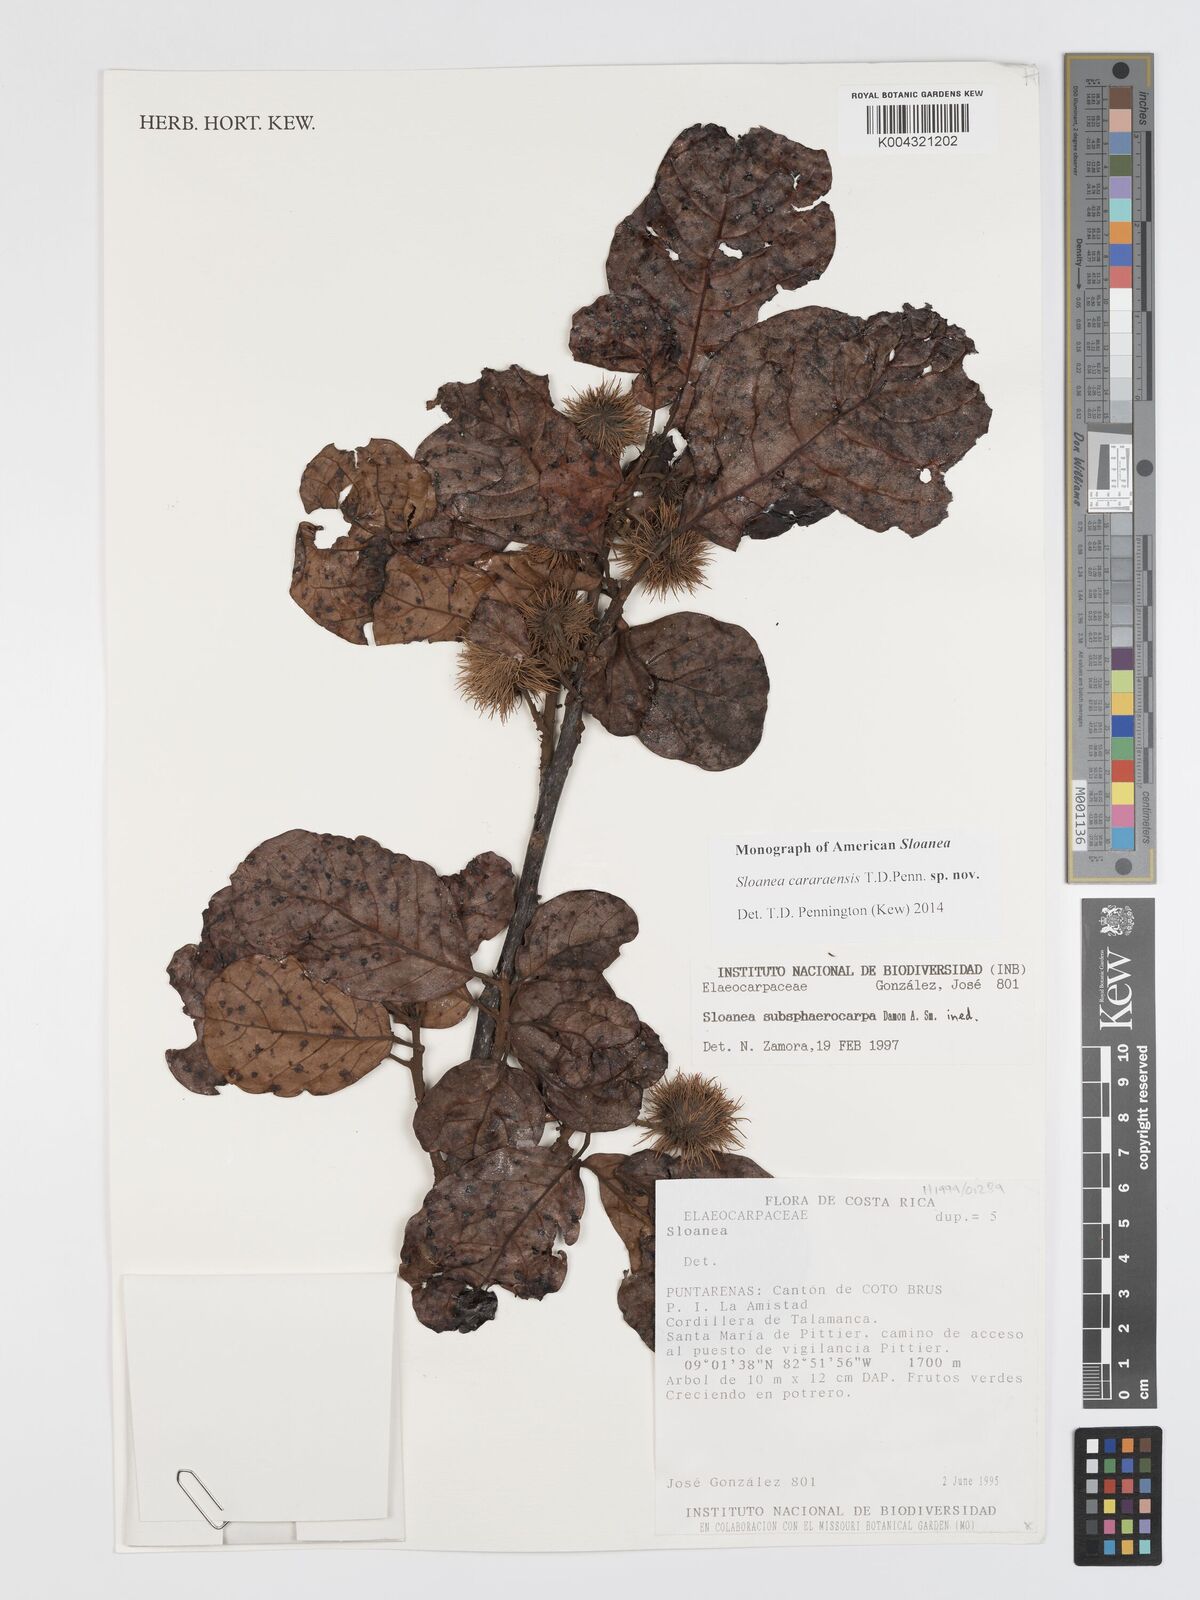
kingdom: Plantae
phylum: Tracheophyta
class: Magnoliopsida
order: Oxalidales
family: Elaeocarpaceae
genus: Sloanea
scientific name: Sloanea cararaensis
